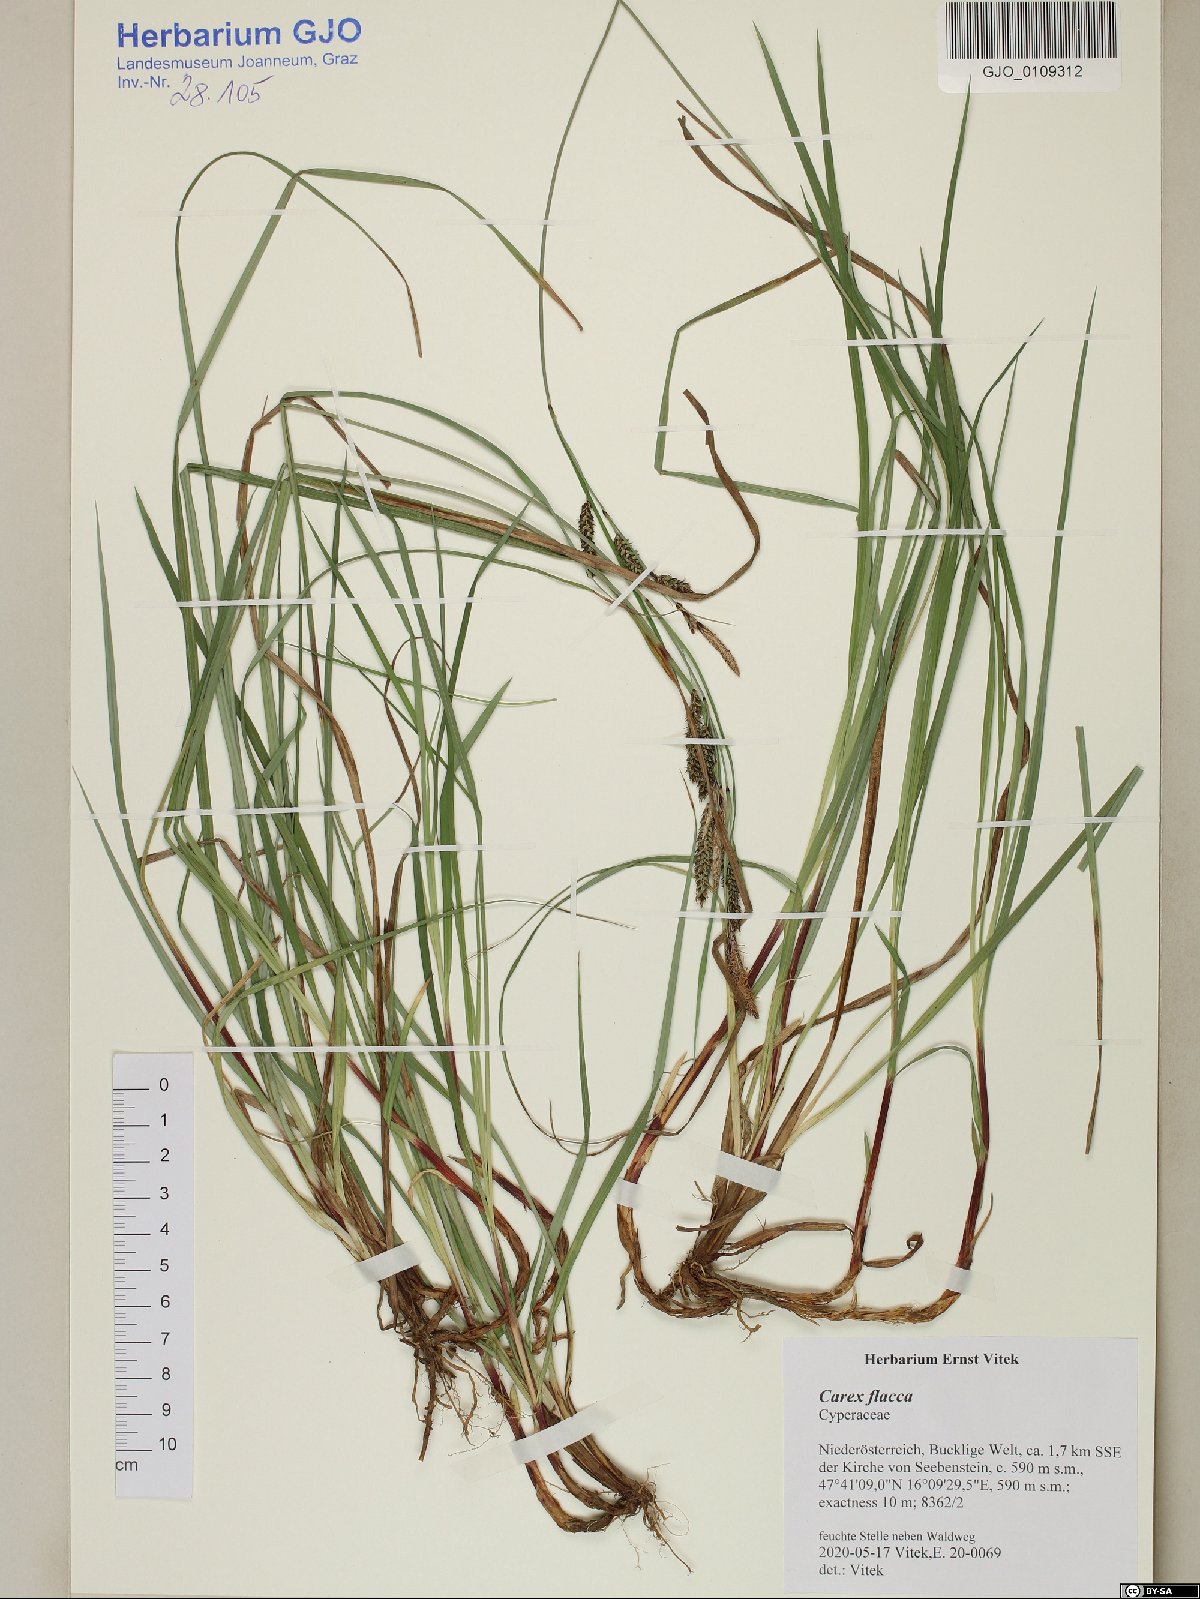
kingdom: Plantae
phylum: Tracheophyta
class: Liliopsida
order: Poales
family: Cyperaceae
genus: Carex
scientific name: Carex flacca
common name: Glaucous sedge
